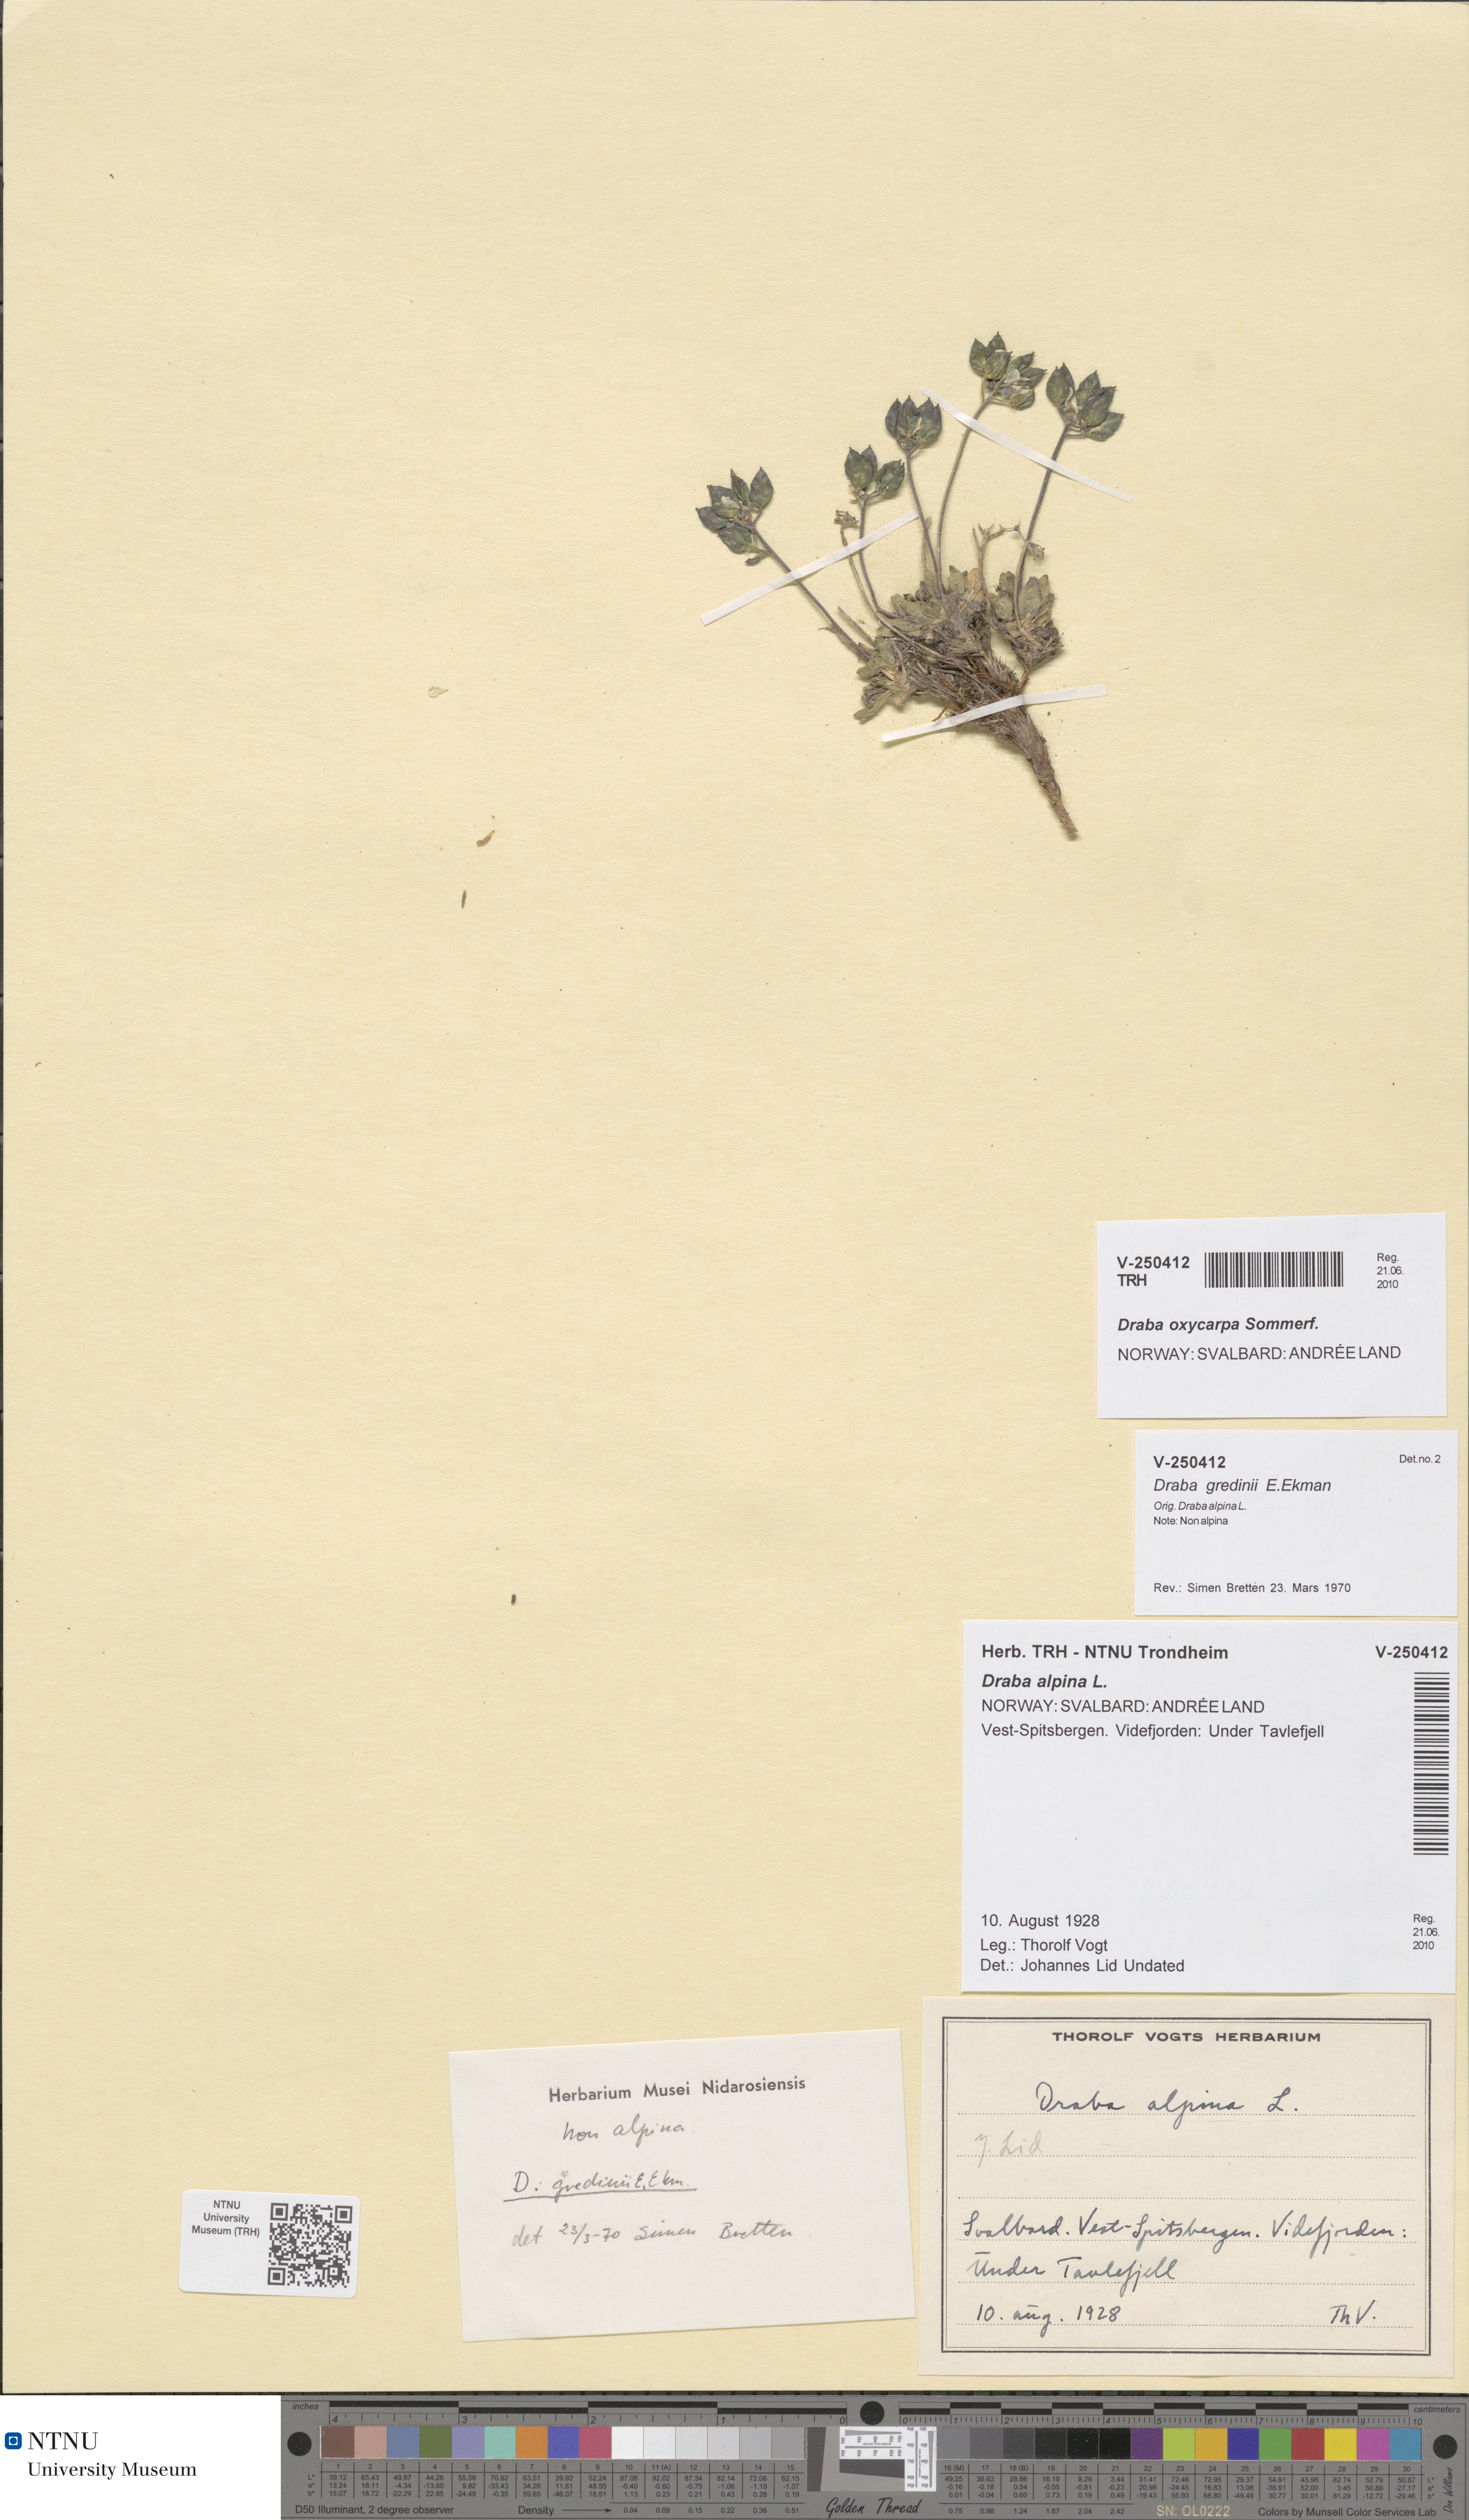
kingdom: Plantae
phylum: Tracheophyta
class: Magnoliopsida
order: Brassicales
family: Brassicaceae
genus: Draba
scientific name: Draba oxycarpa
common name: Sharp-fruited whitlow-grass
